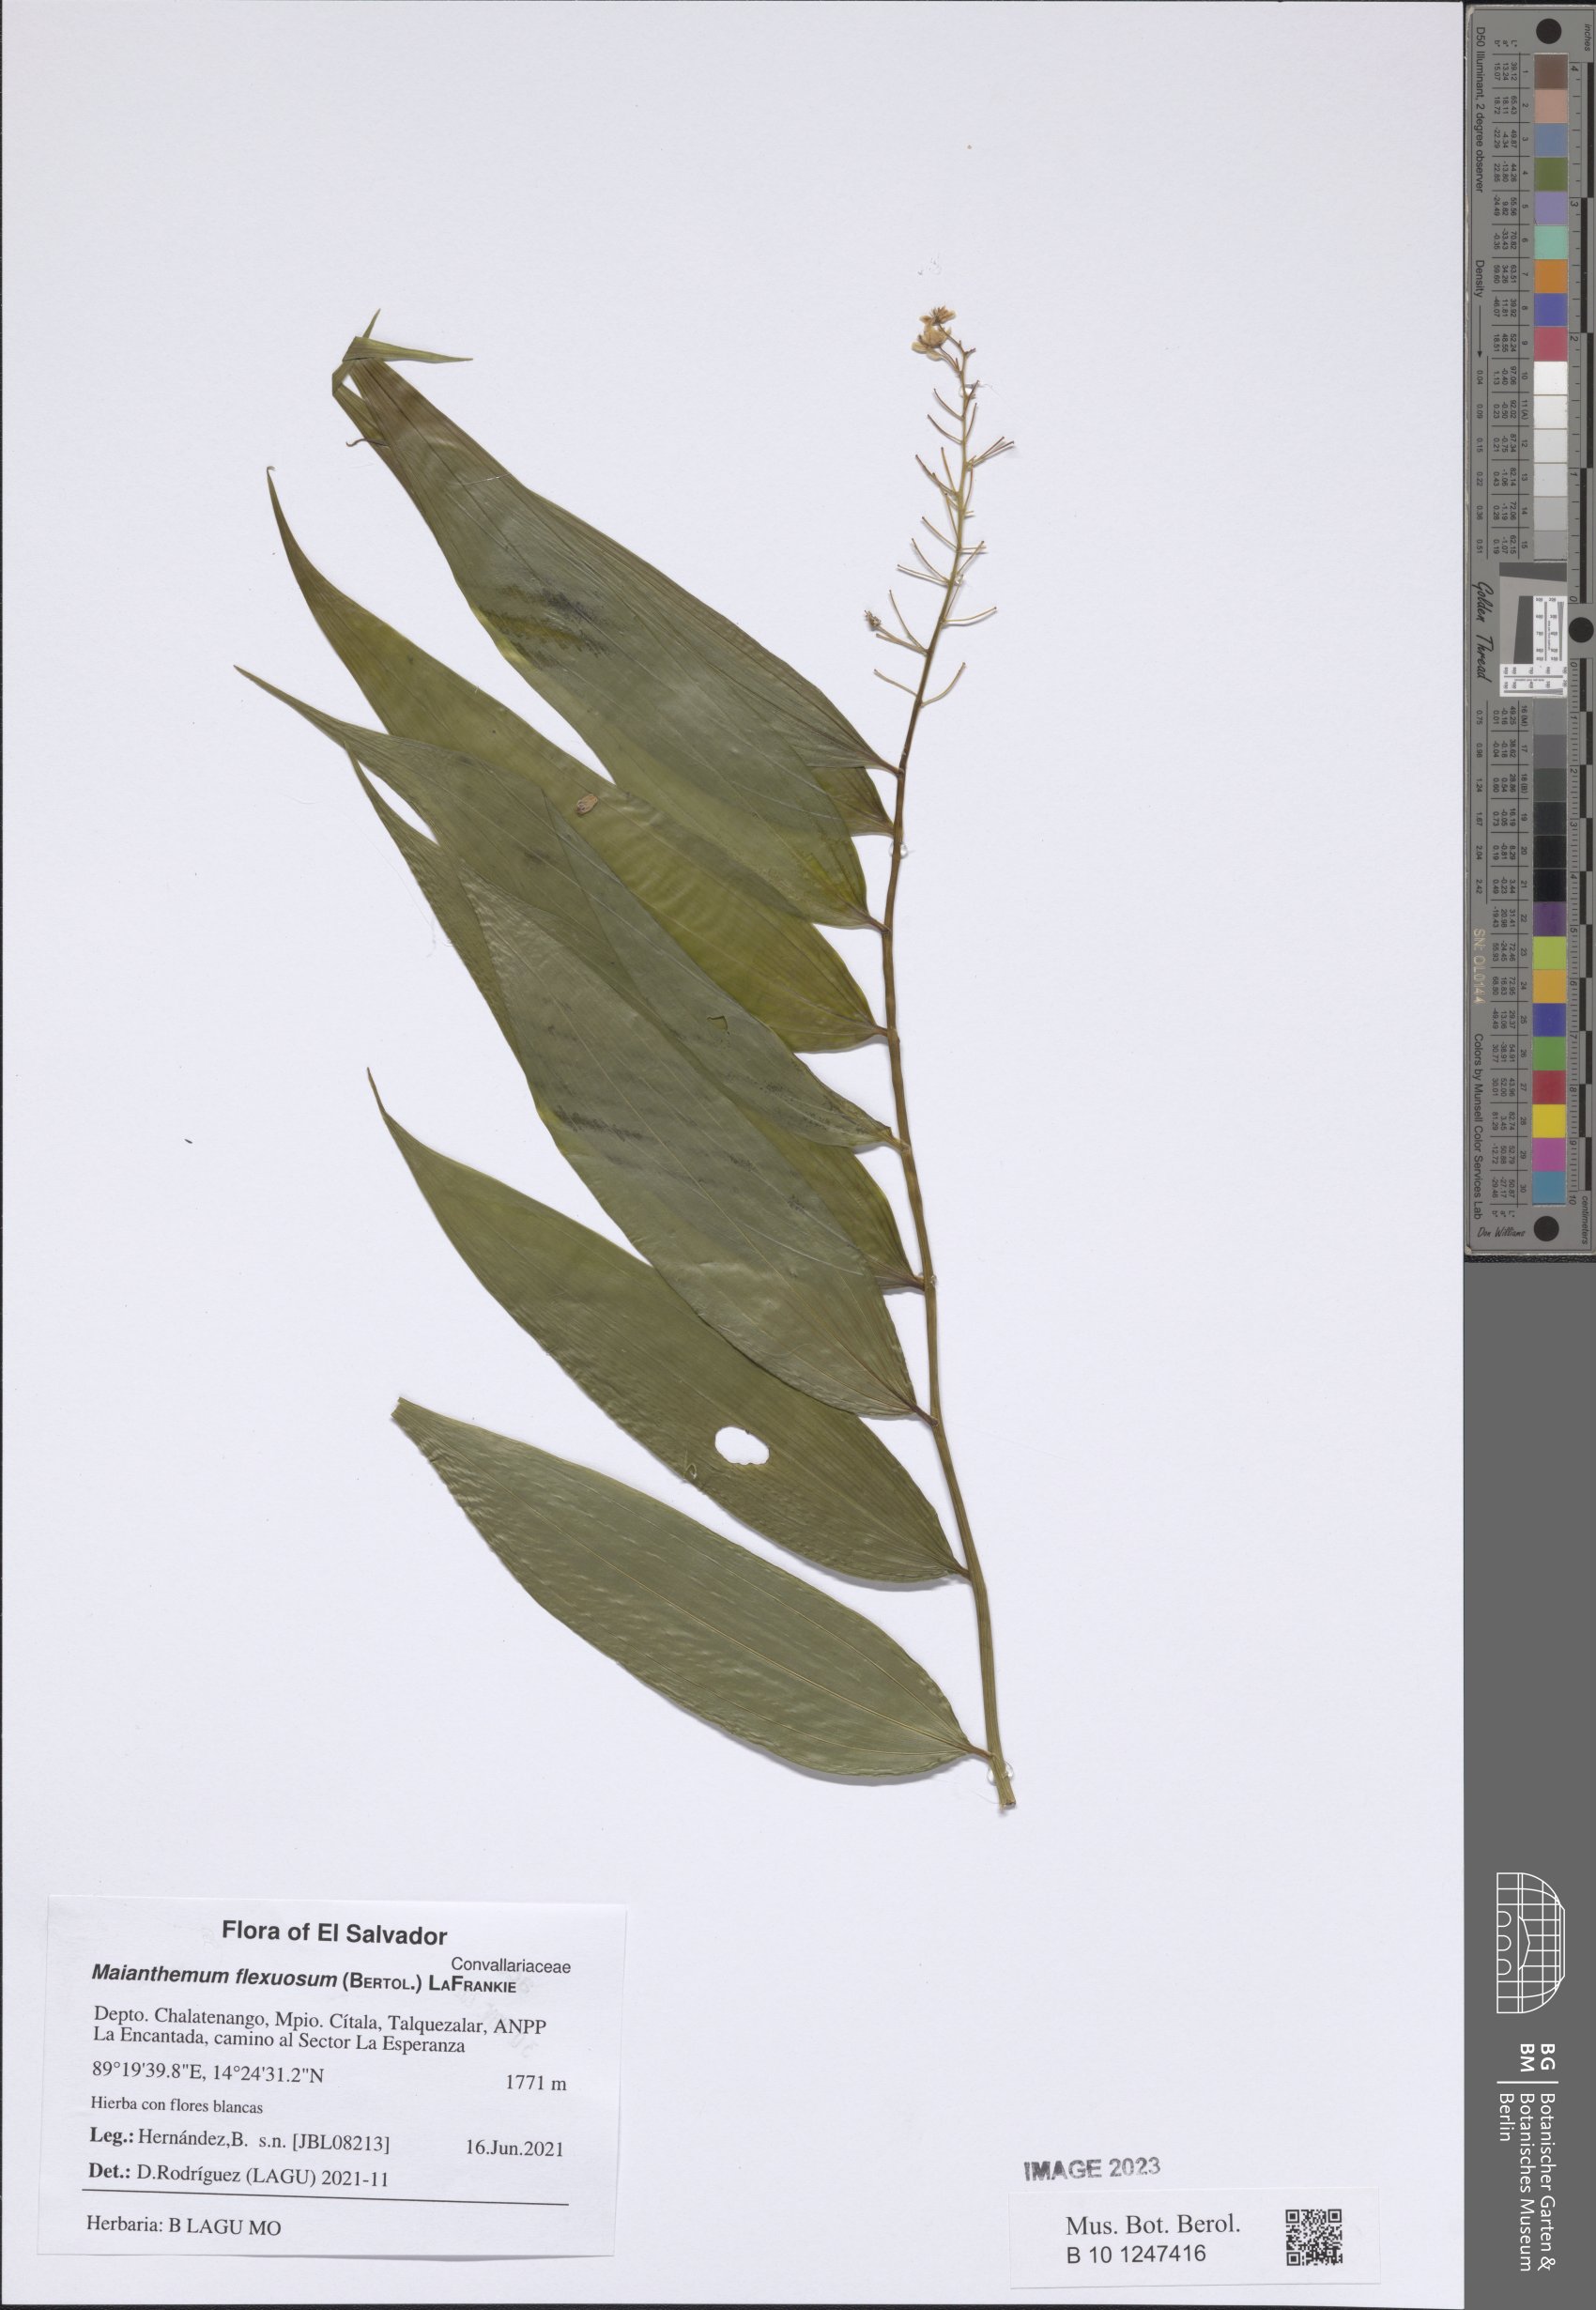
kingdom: Plantae
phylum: Tracheophyta
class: Liliopsida
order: Asparagales
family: Asparagaceae
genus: Maianthemum
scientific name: Maianthemum flexuosum
